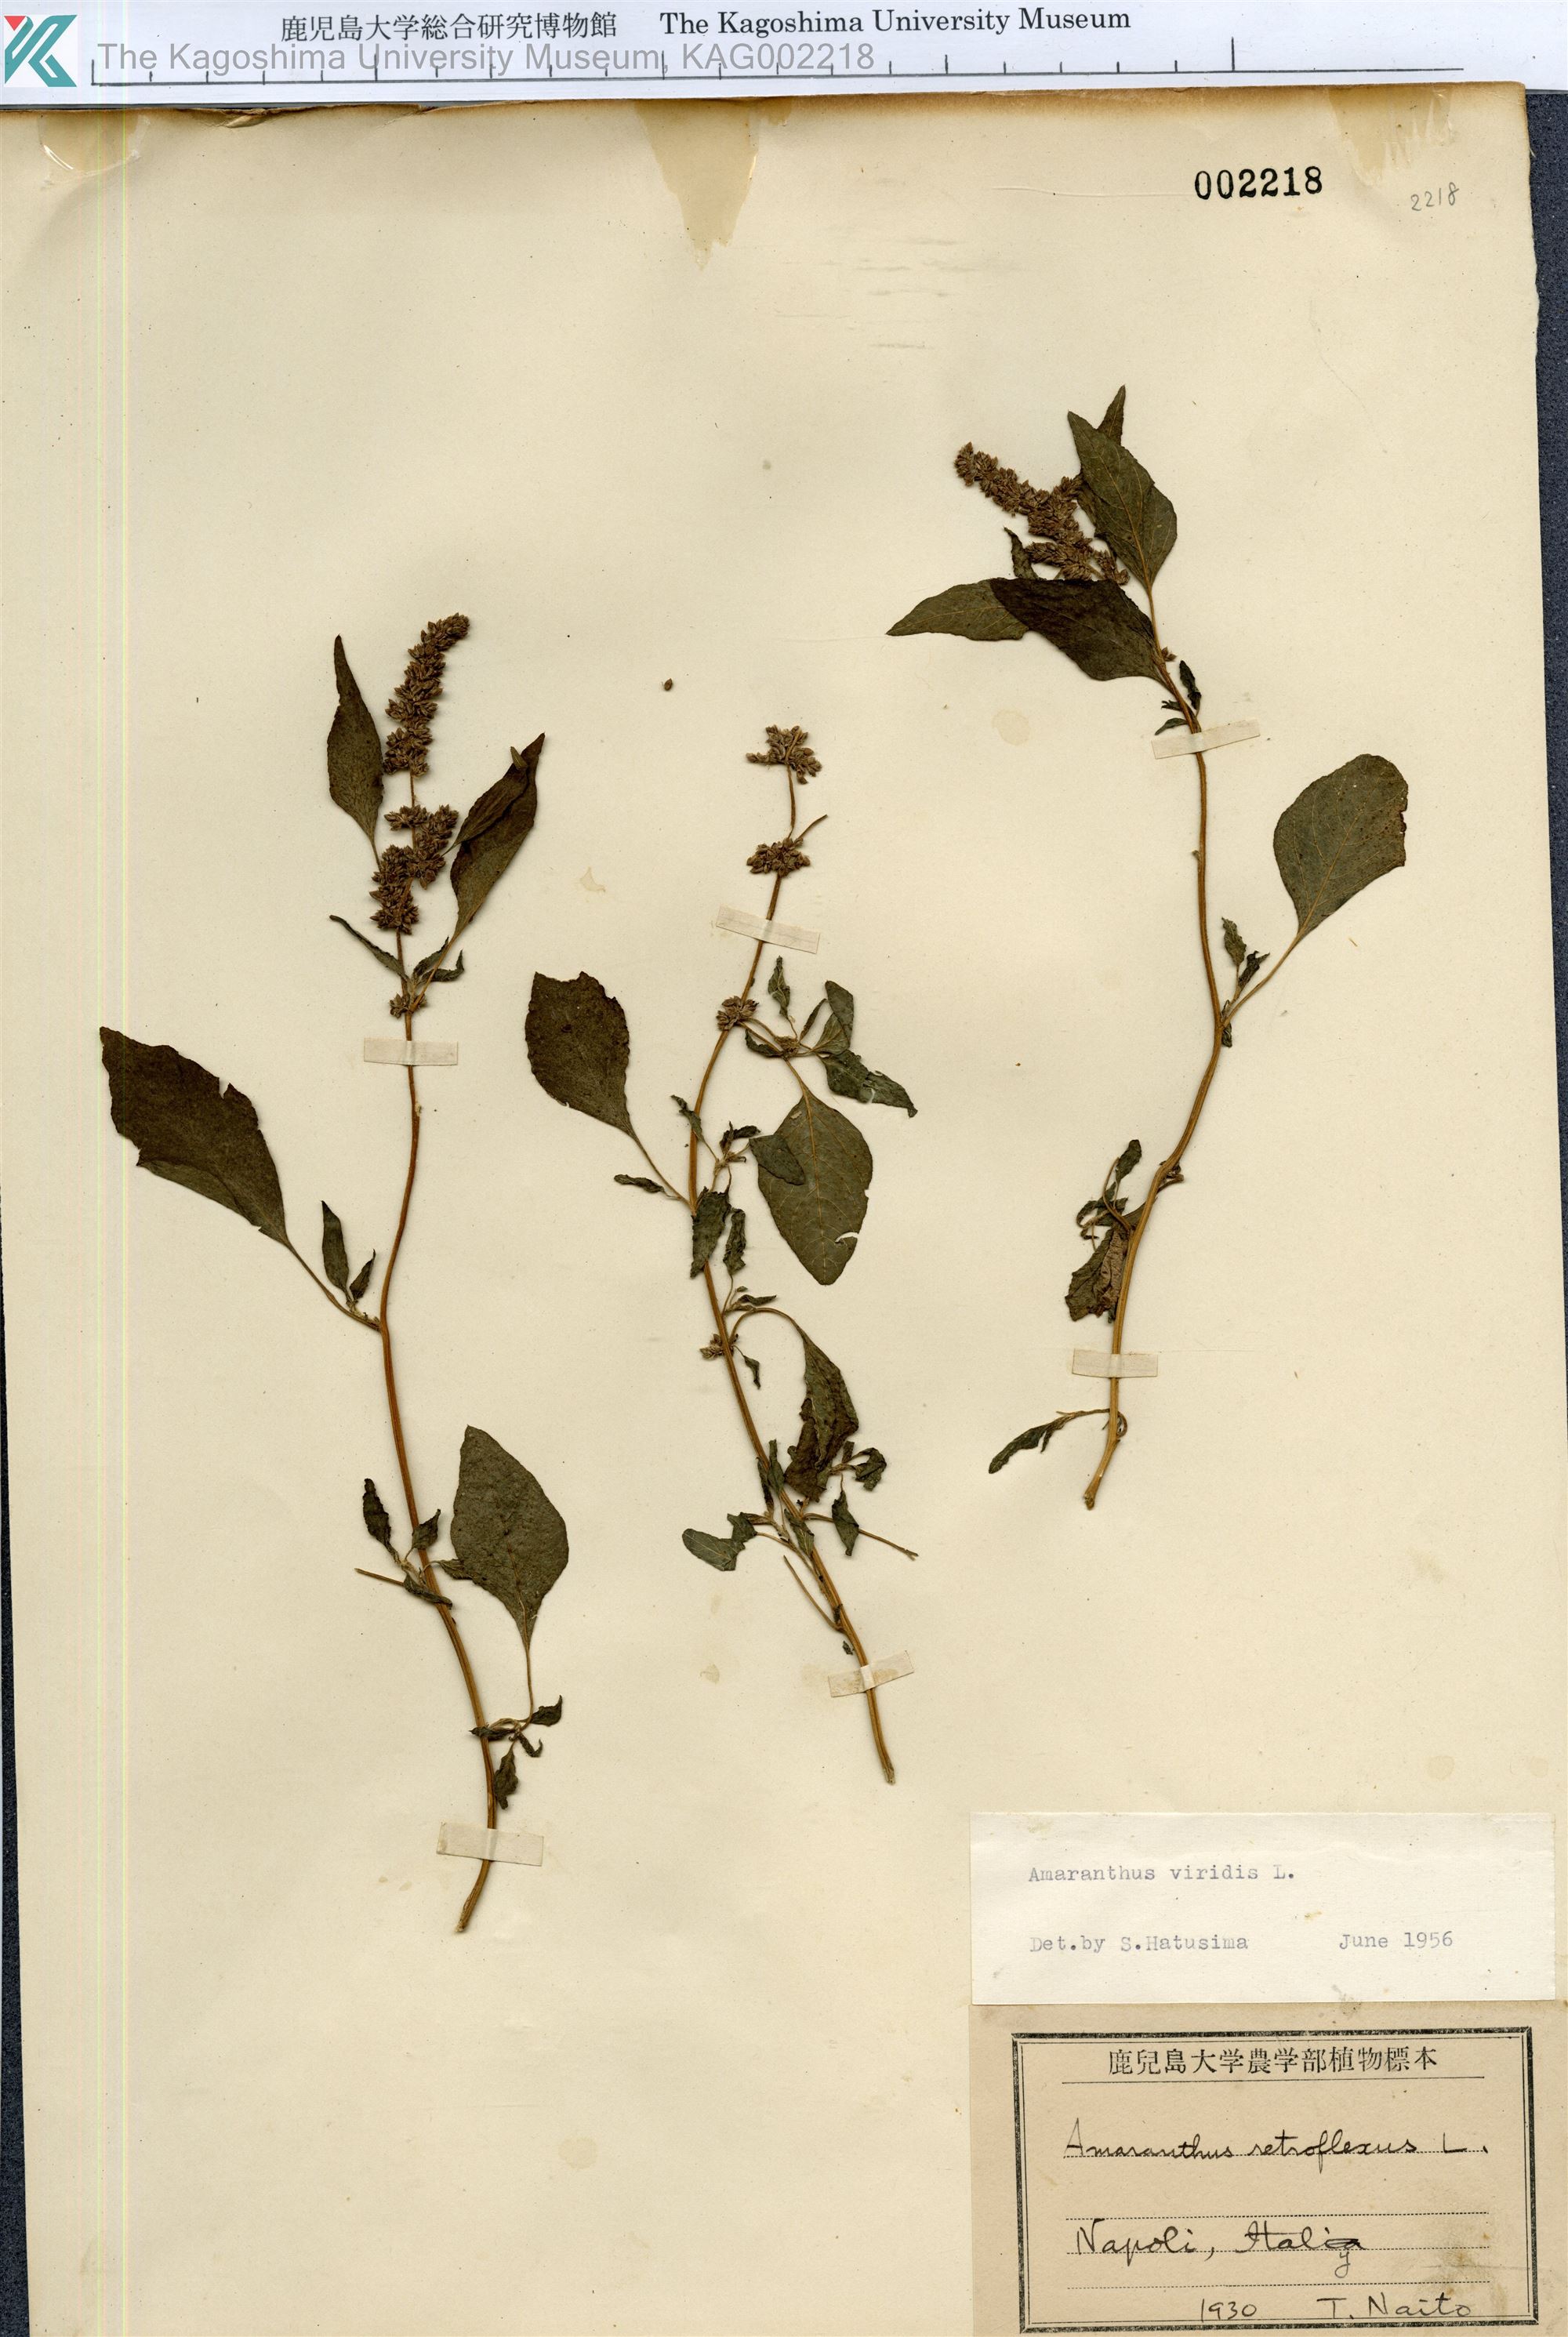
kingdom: Plantae
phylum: Tracheophyta
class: Magnoliopsida
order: Caryophyllales
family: Amaranthaceae
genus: Amaranthus
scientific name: Amaranthus viridis
